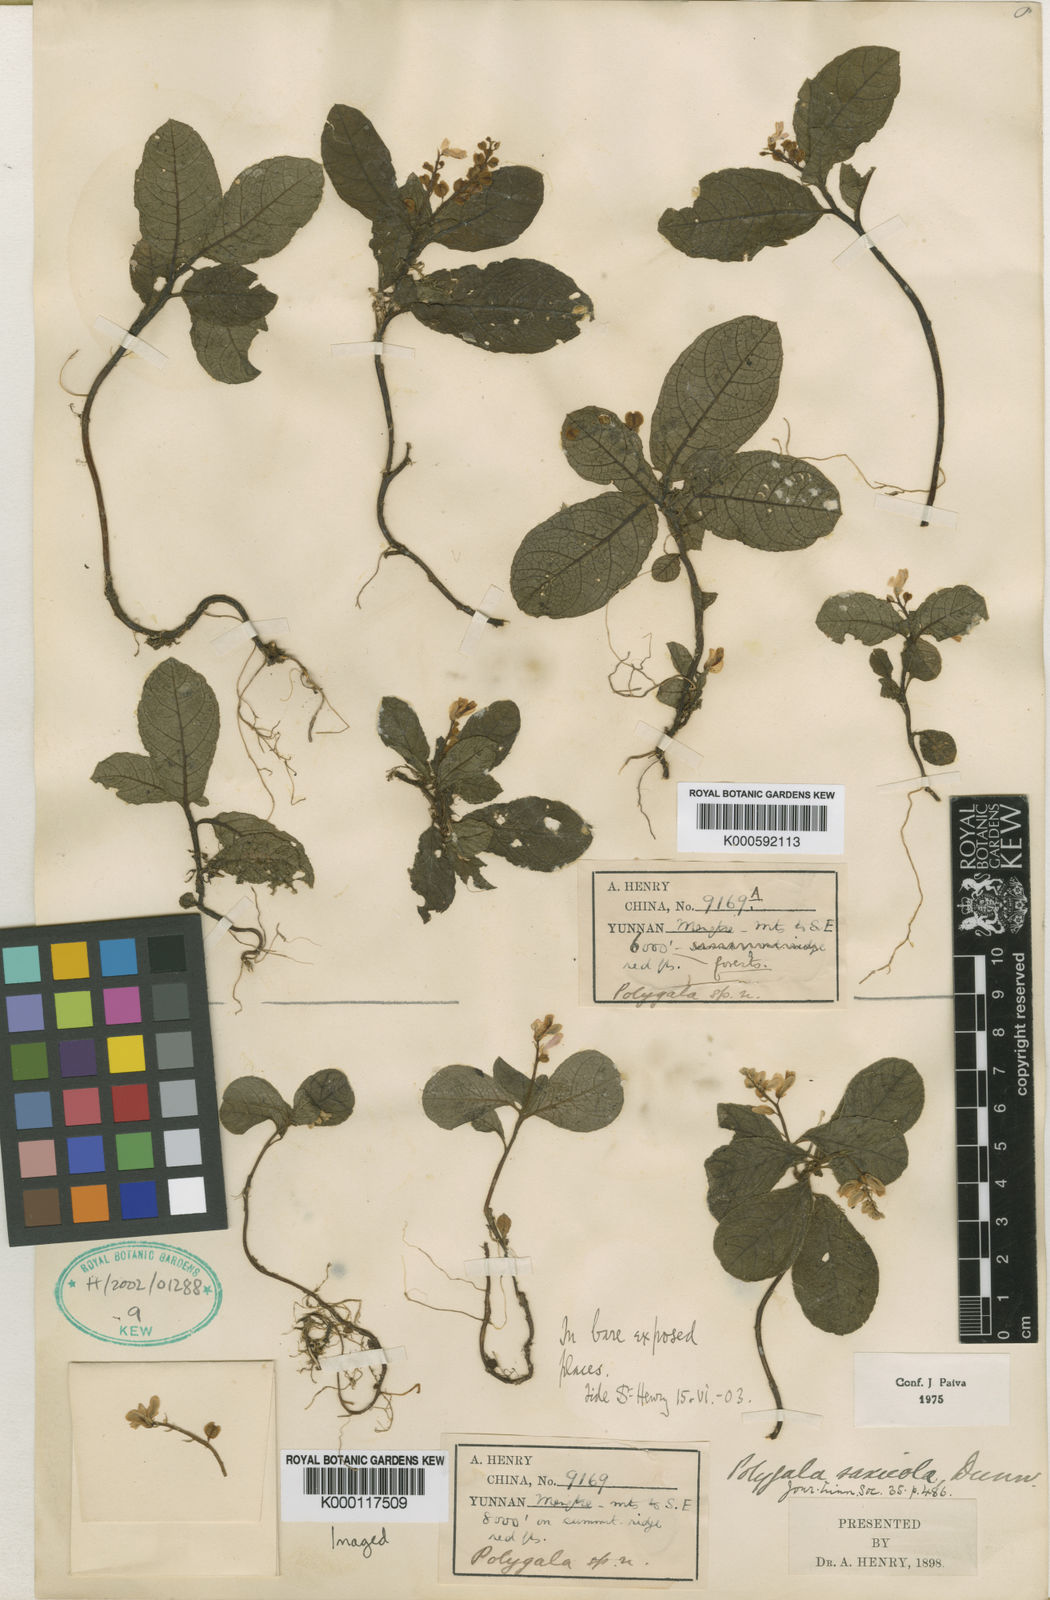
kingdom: Plantae
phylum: Tracheophyta
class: Magnoliopsida
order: Fabales
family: Polygalaceae
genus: Polygala
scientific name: Polygala saxicola
